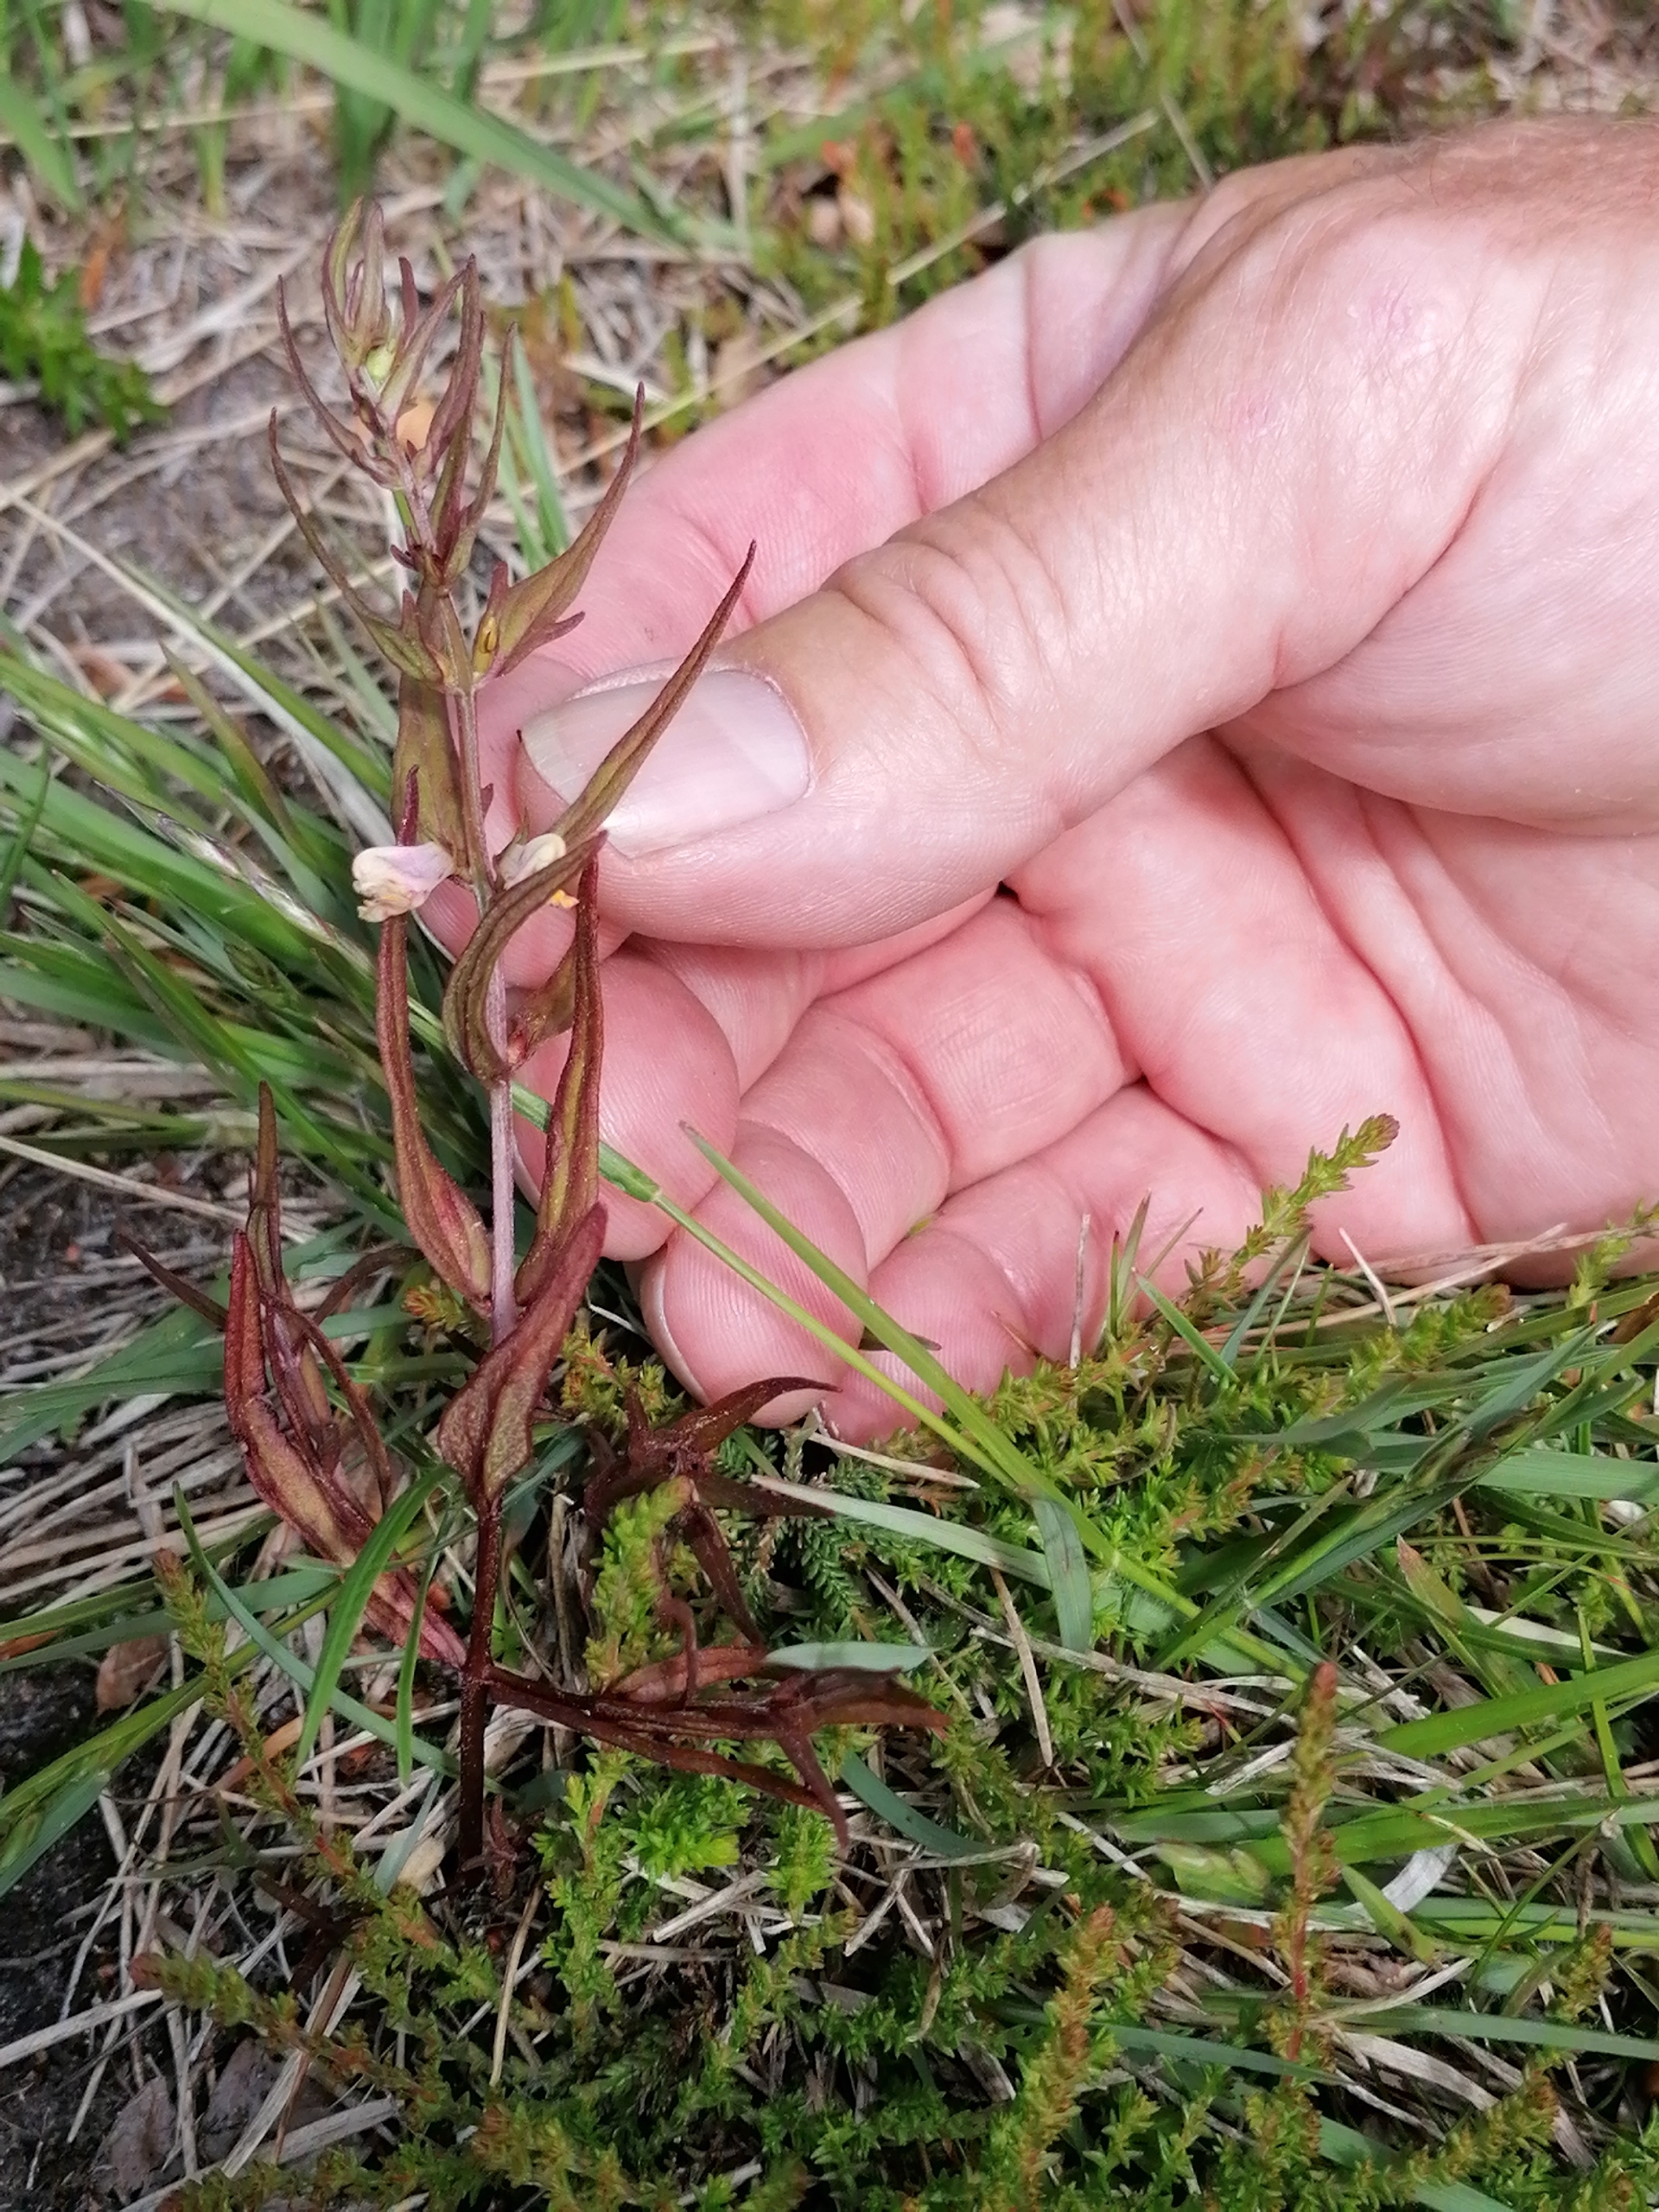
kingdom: Plantae
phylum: Tracheophyta
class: Magnoliopsida
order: Lamiales
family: Orobanchaceae
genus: Melampyrum
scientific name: Melampyrum pratense
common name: Almindelig kohvede
